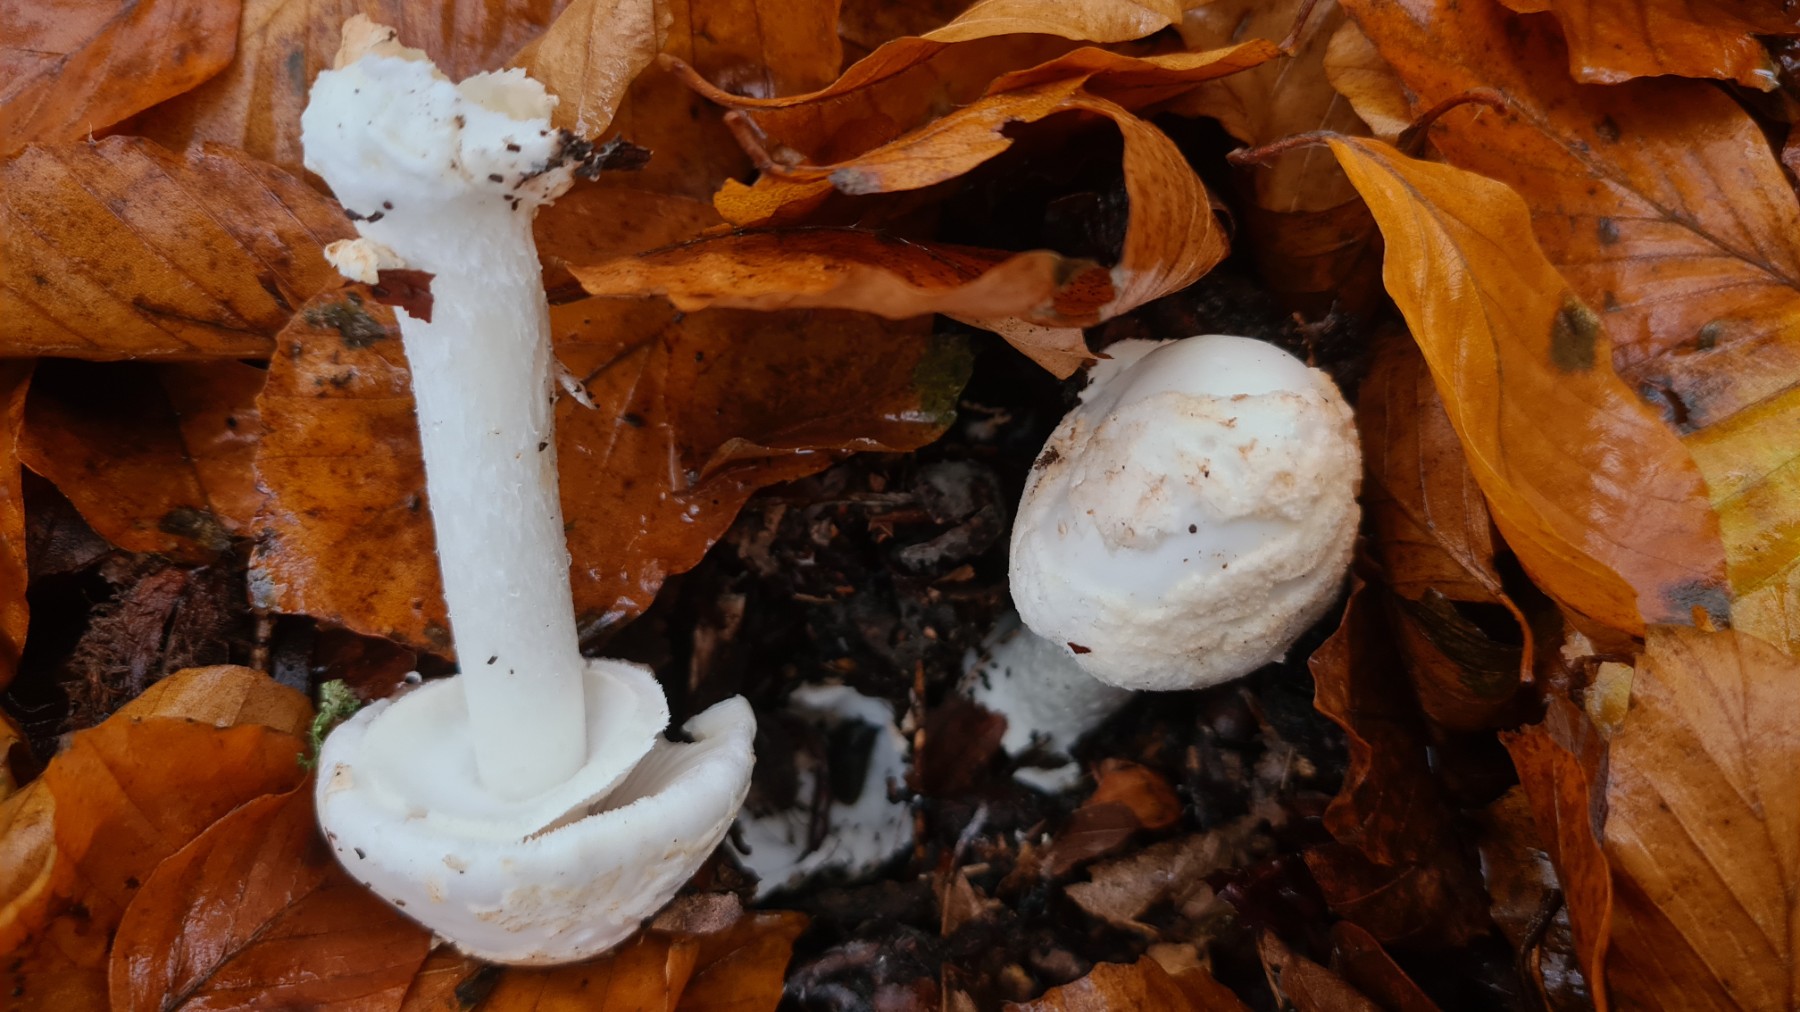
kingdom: Fungi
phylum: Basidiomycota
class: Agaricomycetes
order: Agaricales
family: Amanitaceae
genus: Amanita
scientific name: Amanita citrina
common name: False death-cap
